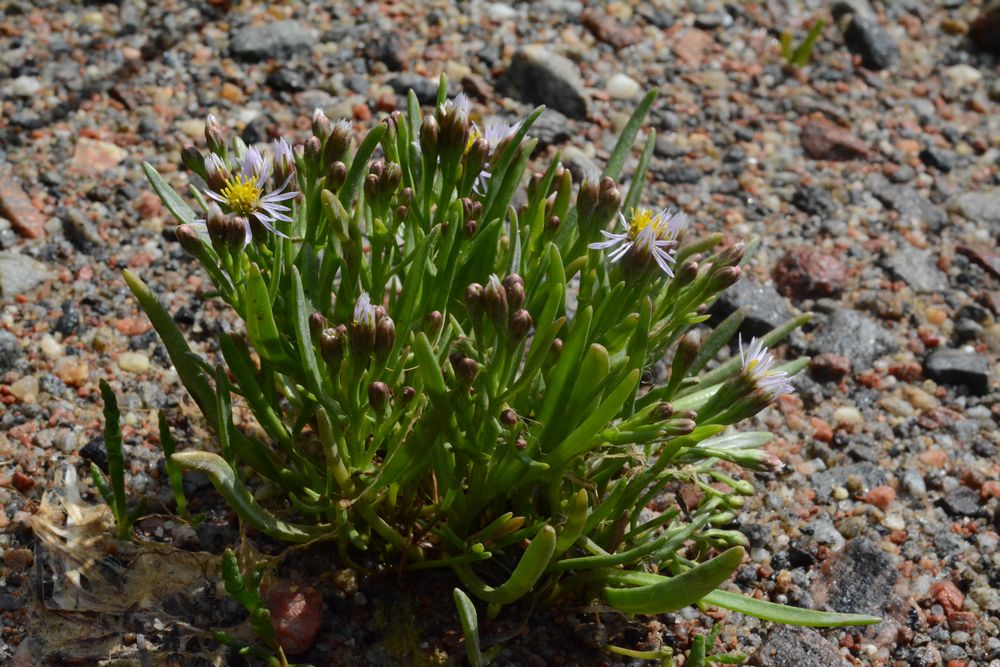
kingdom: Plantae
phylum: Tracheophyta
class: Magnoliopsida
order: Asterales
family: Asteraceae
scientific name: Asteraceae
